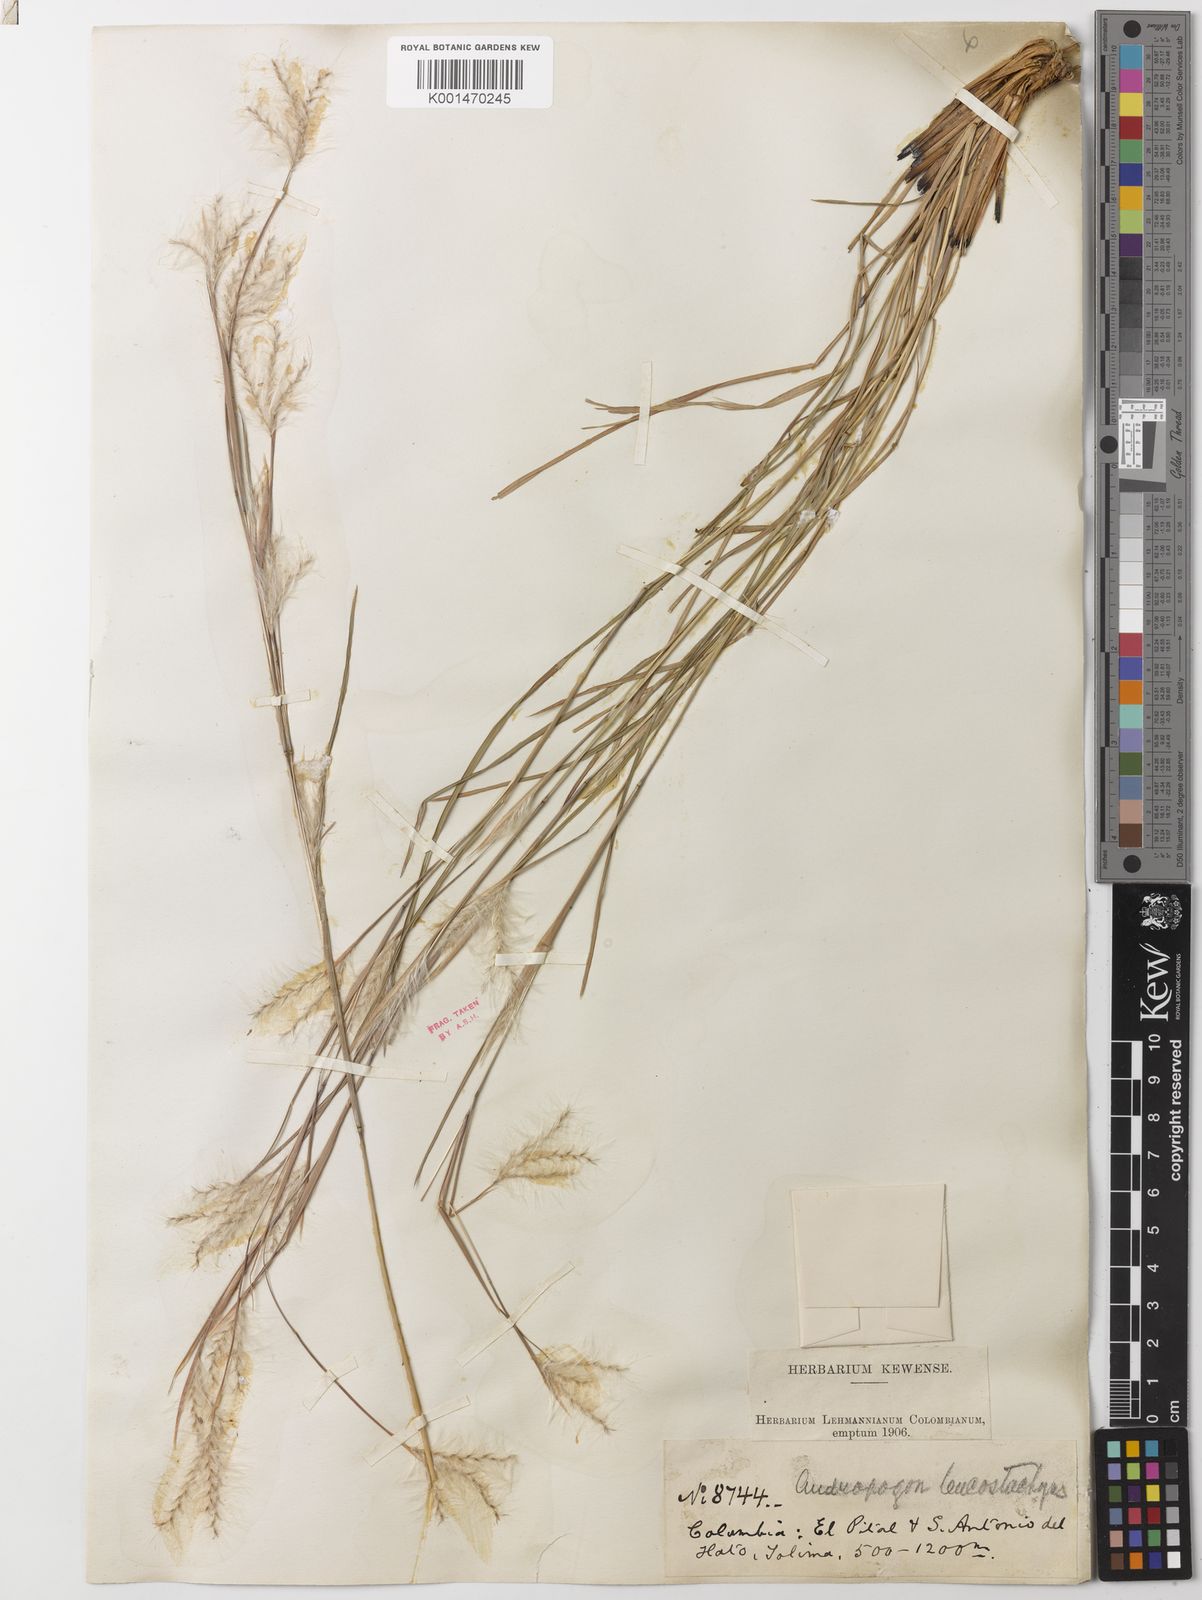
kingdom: Plantae
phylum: Tracheophyta
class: Liliopsida
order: Poales
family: Poaceae
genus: Andropogon
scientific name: Andropogon leucostachyus
